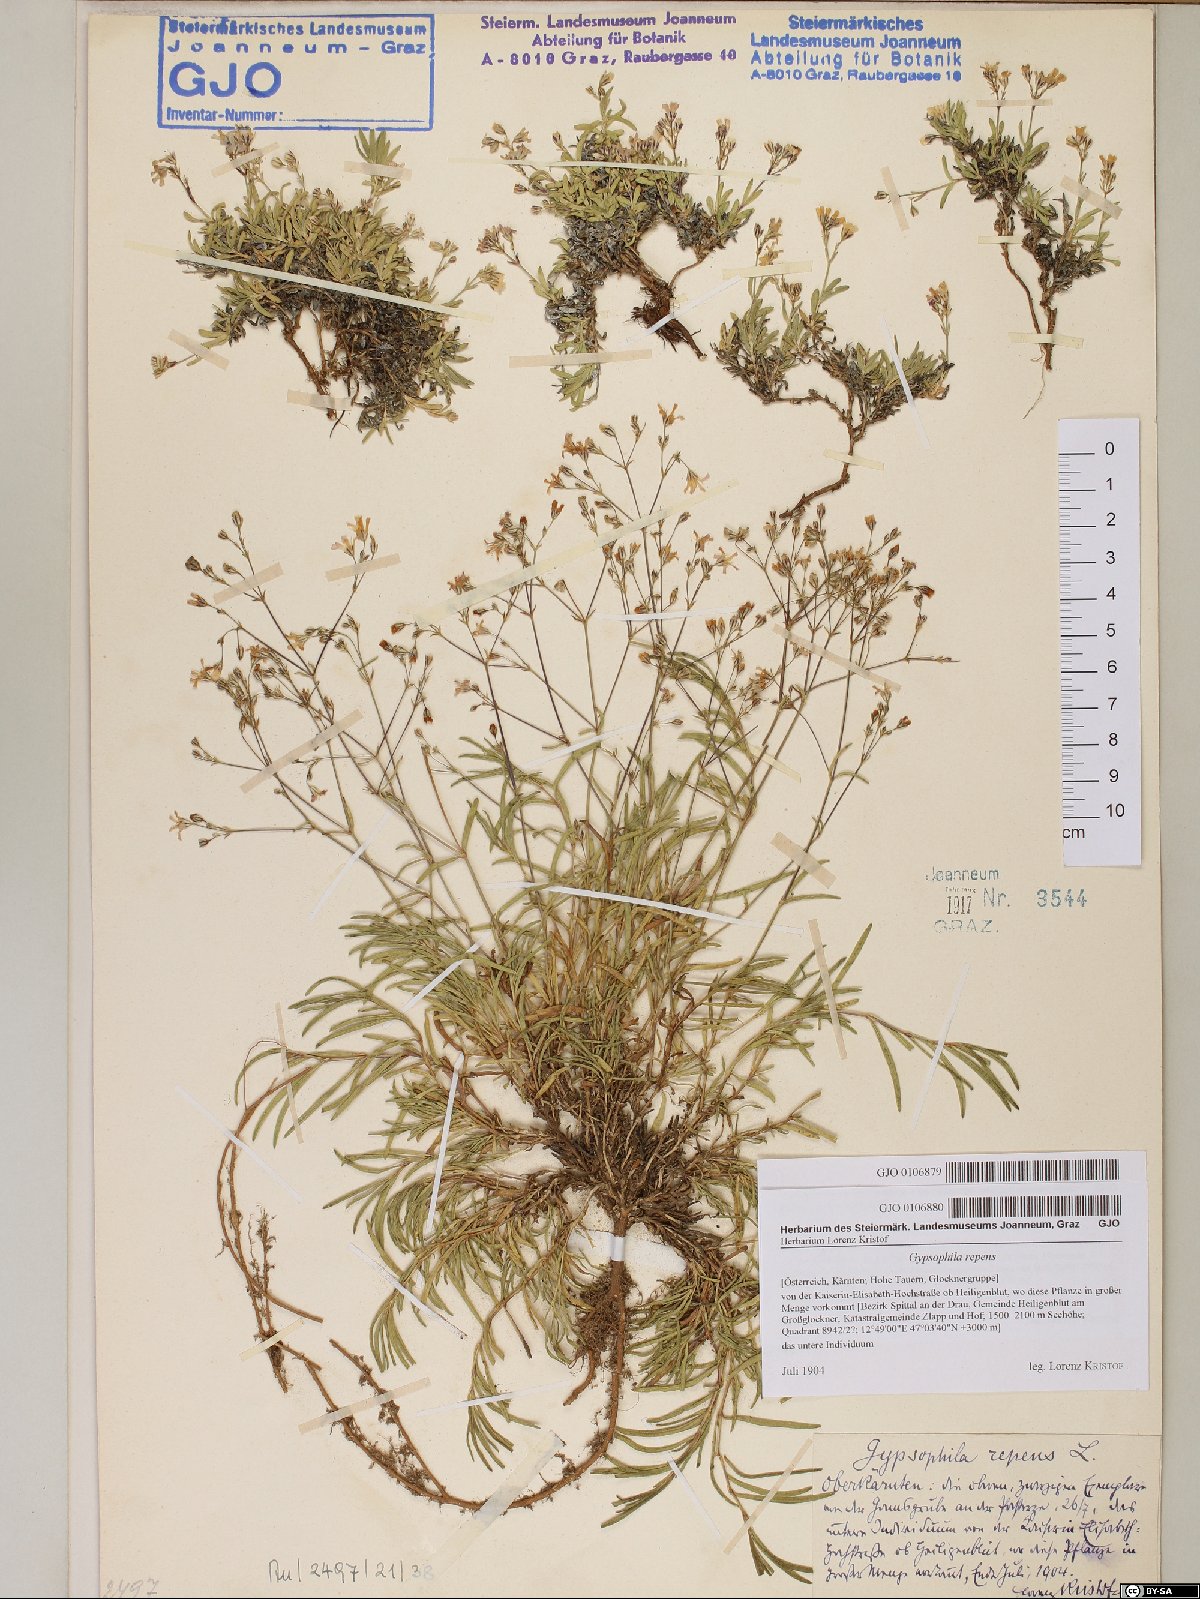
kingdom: Plantae
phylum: Tracheophyta
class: Magnoliopsida
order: Caryophyllales
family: Caryophyllaceae
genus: Gypsophila
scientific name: Gypsophila repens
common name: Creeping baby's-breath
